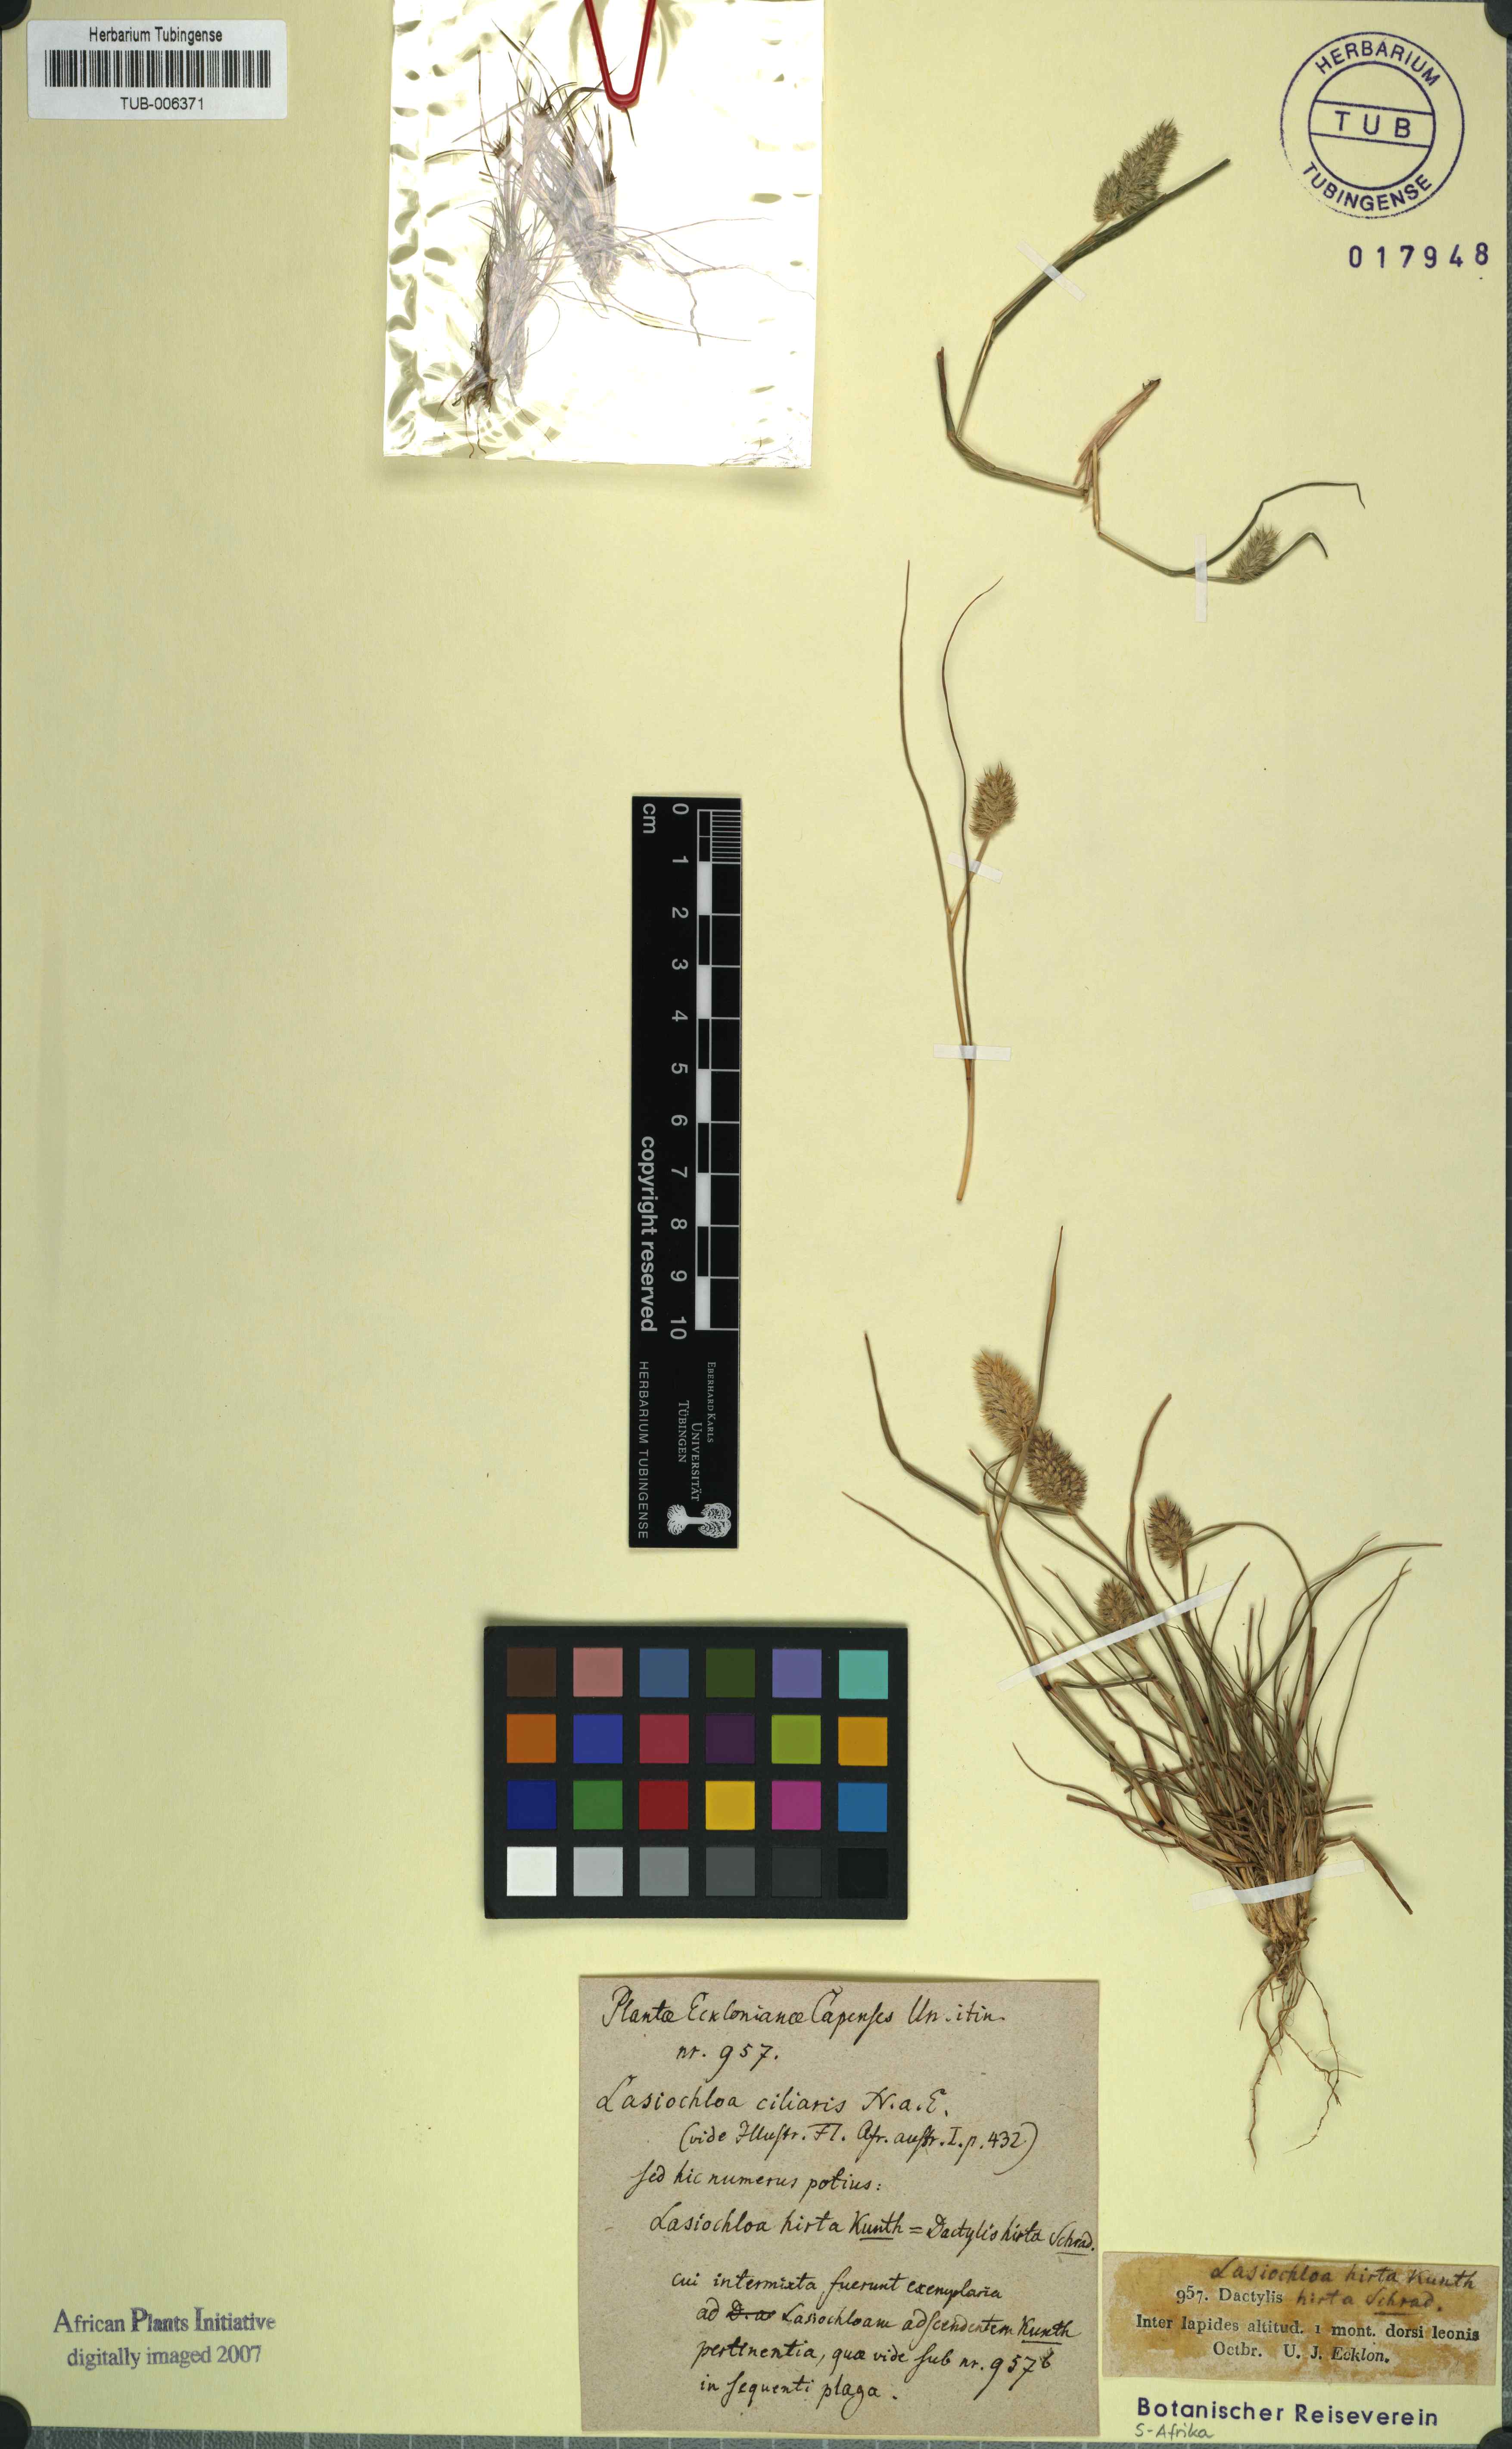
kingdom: Plantae
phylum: Tracheophyta
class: Liliopsida
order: Poales
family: Poaceae
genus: Tribolium
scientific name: Tribolium hispidum
